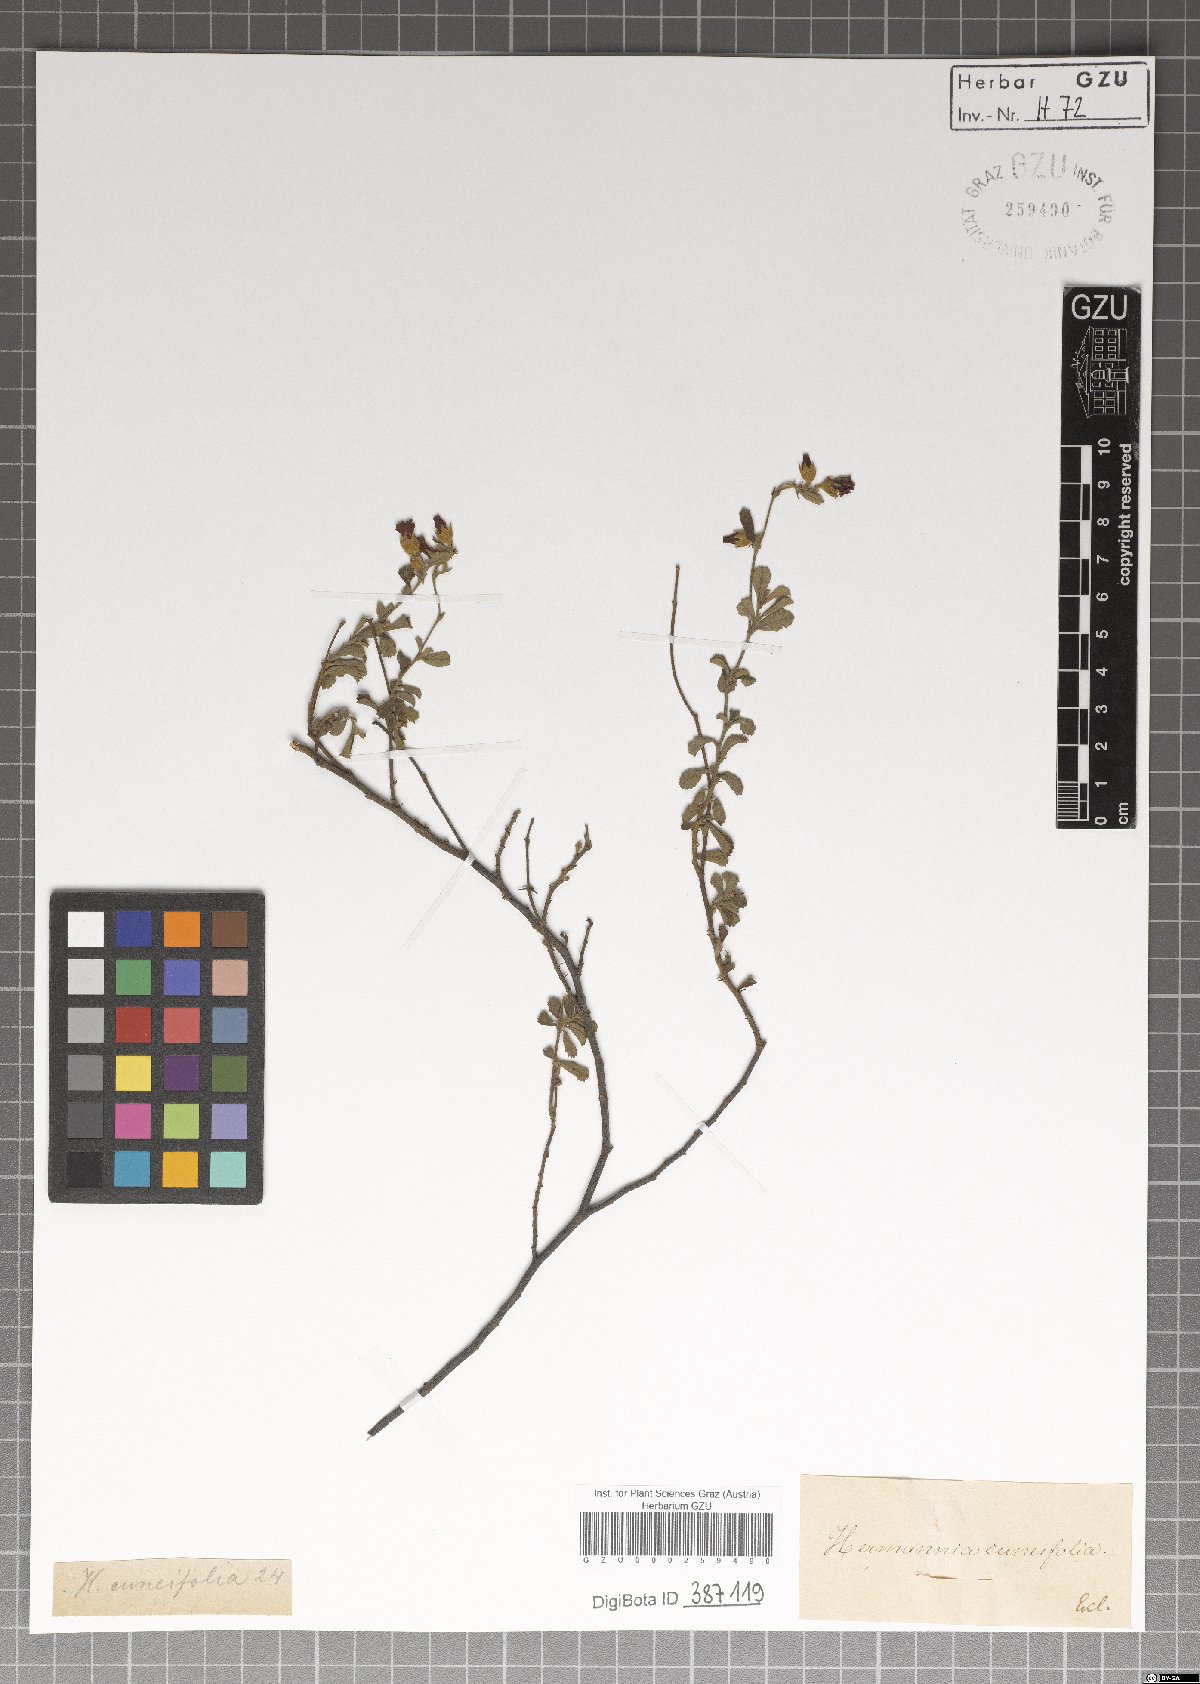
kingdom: Plantae
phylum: Tracheophyta
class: Magnoliopsida
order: Malvales
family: Malvaceae
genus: Hermannia
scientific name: Hermannia cuneifolia
